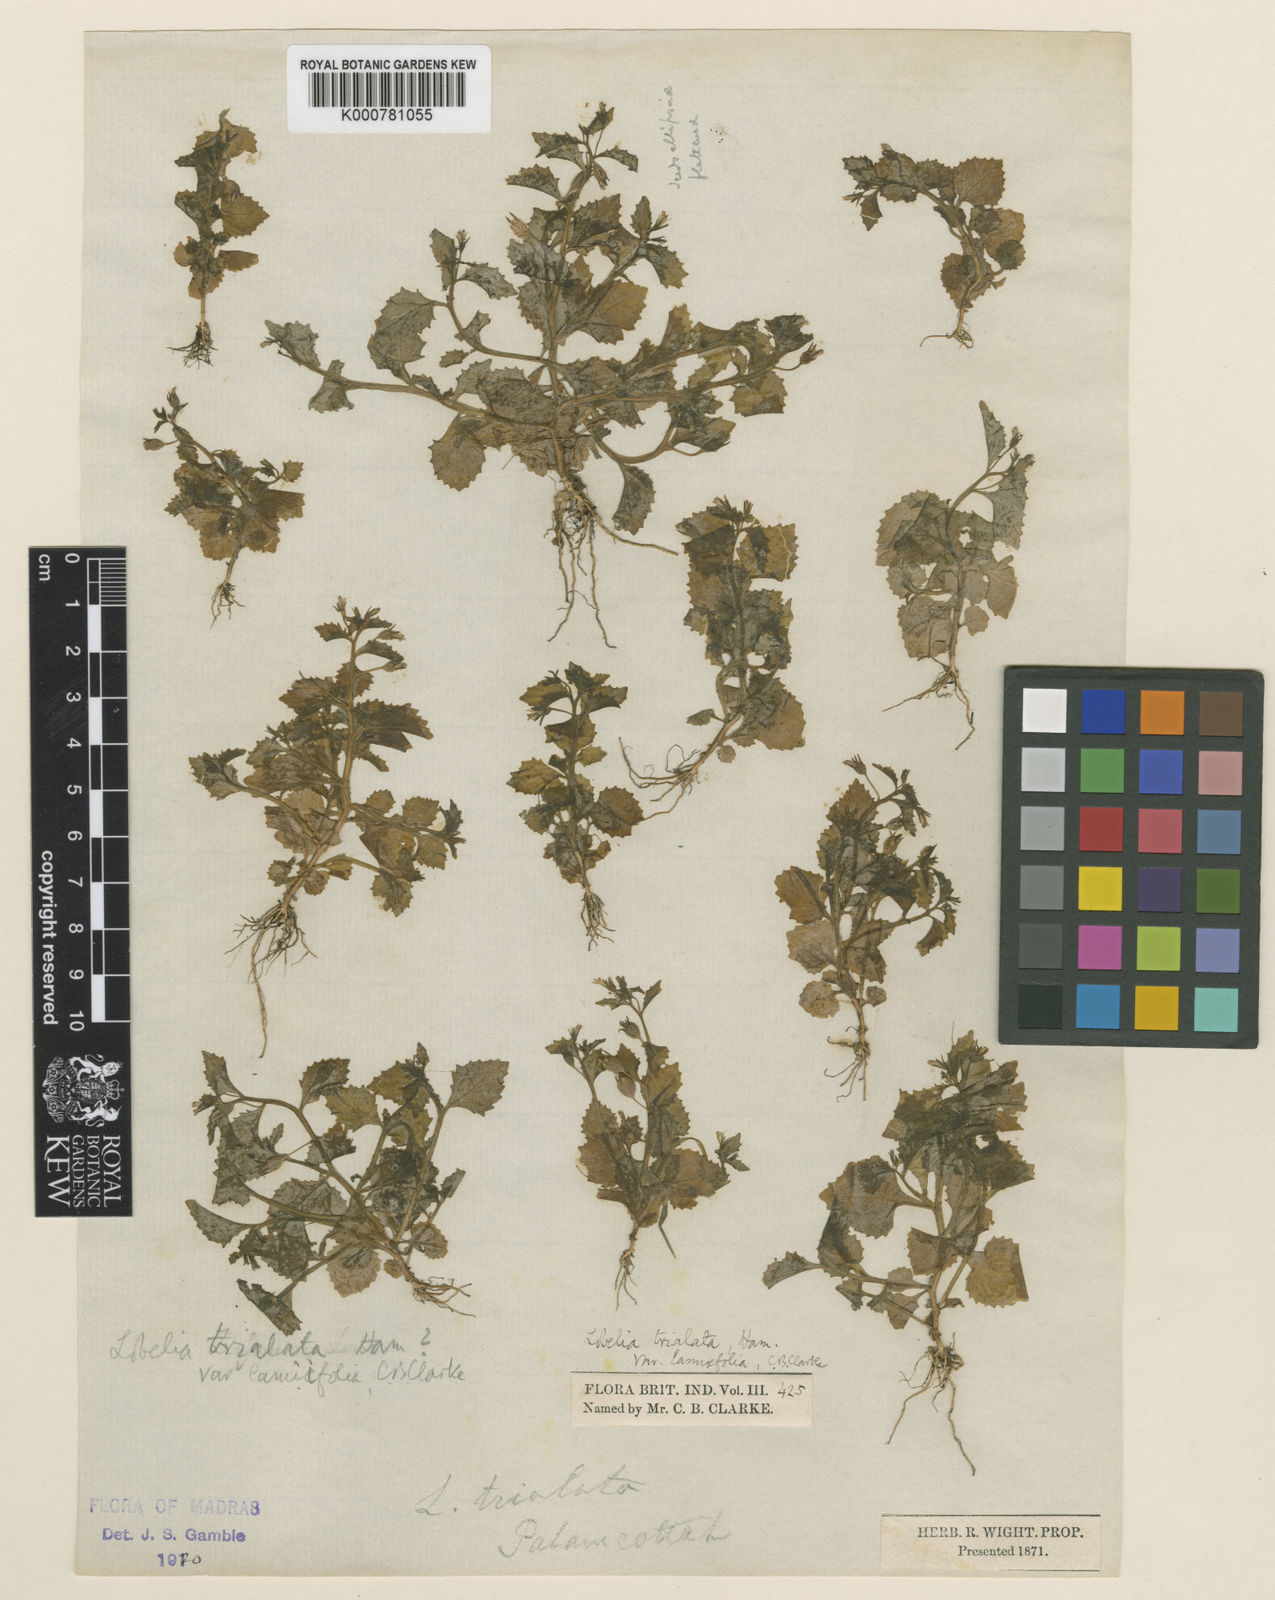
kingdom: Plantae
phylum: Tracheophyta
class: Magnoliopsida
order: Asterales
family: Campanulaceae
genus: Lobelia
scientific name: Lobelia heyneana
